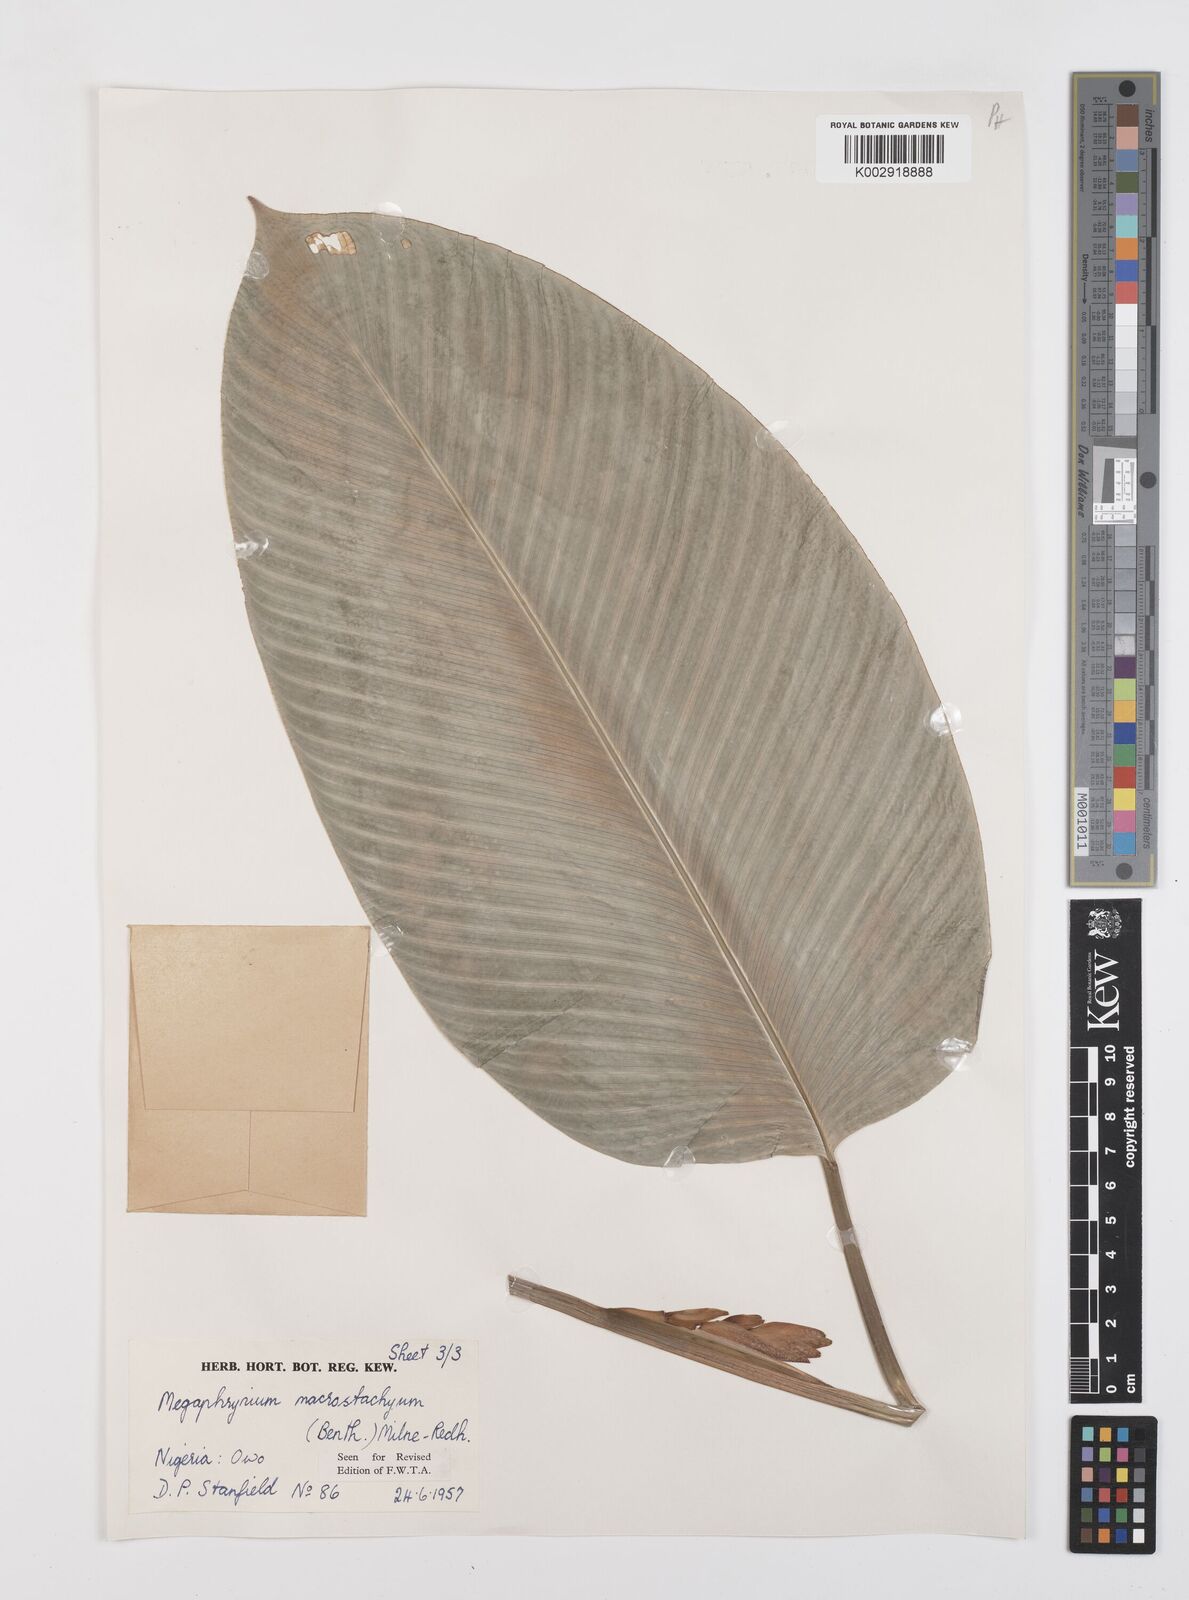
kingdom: Plantae
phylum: Tracheophyta
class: Liliopsida
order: Zingiberales
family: Marantaceae
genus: Megaphrynium
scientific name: Megaphrynium macrostachyum
